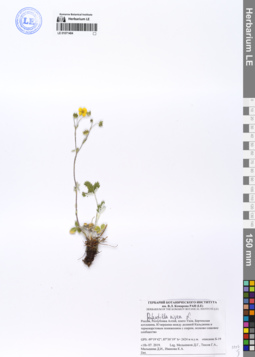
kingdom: Plantae
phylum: Tracheophyta
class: Magnoliopsida
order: Rosales
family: Rosaceae
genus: Potentilla
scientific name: Potentilla nivea
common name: Snow cinquefoil
